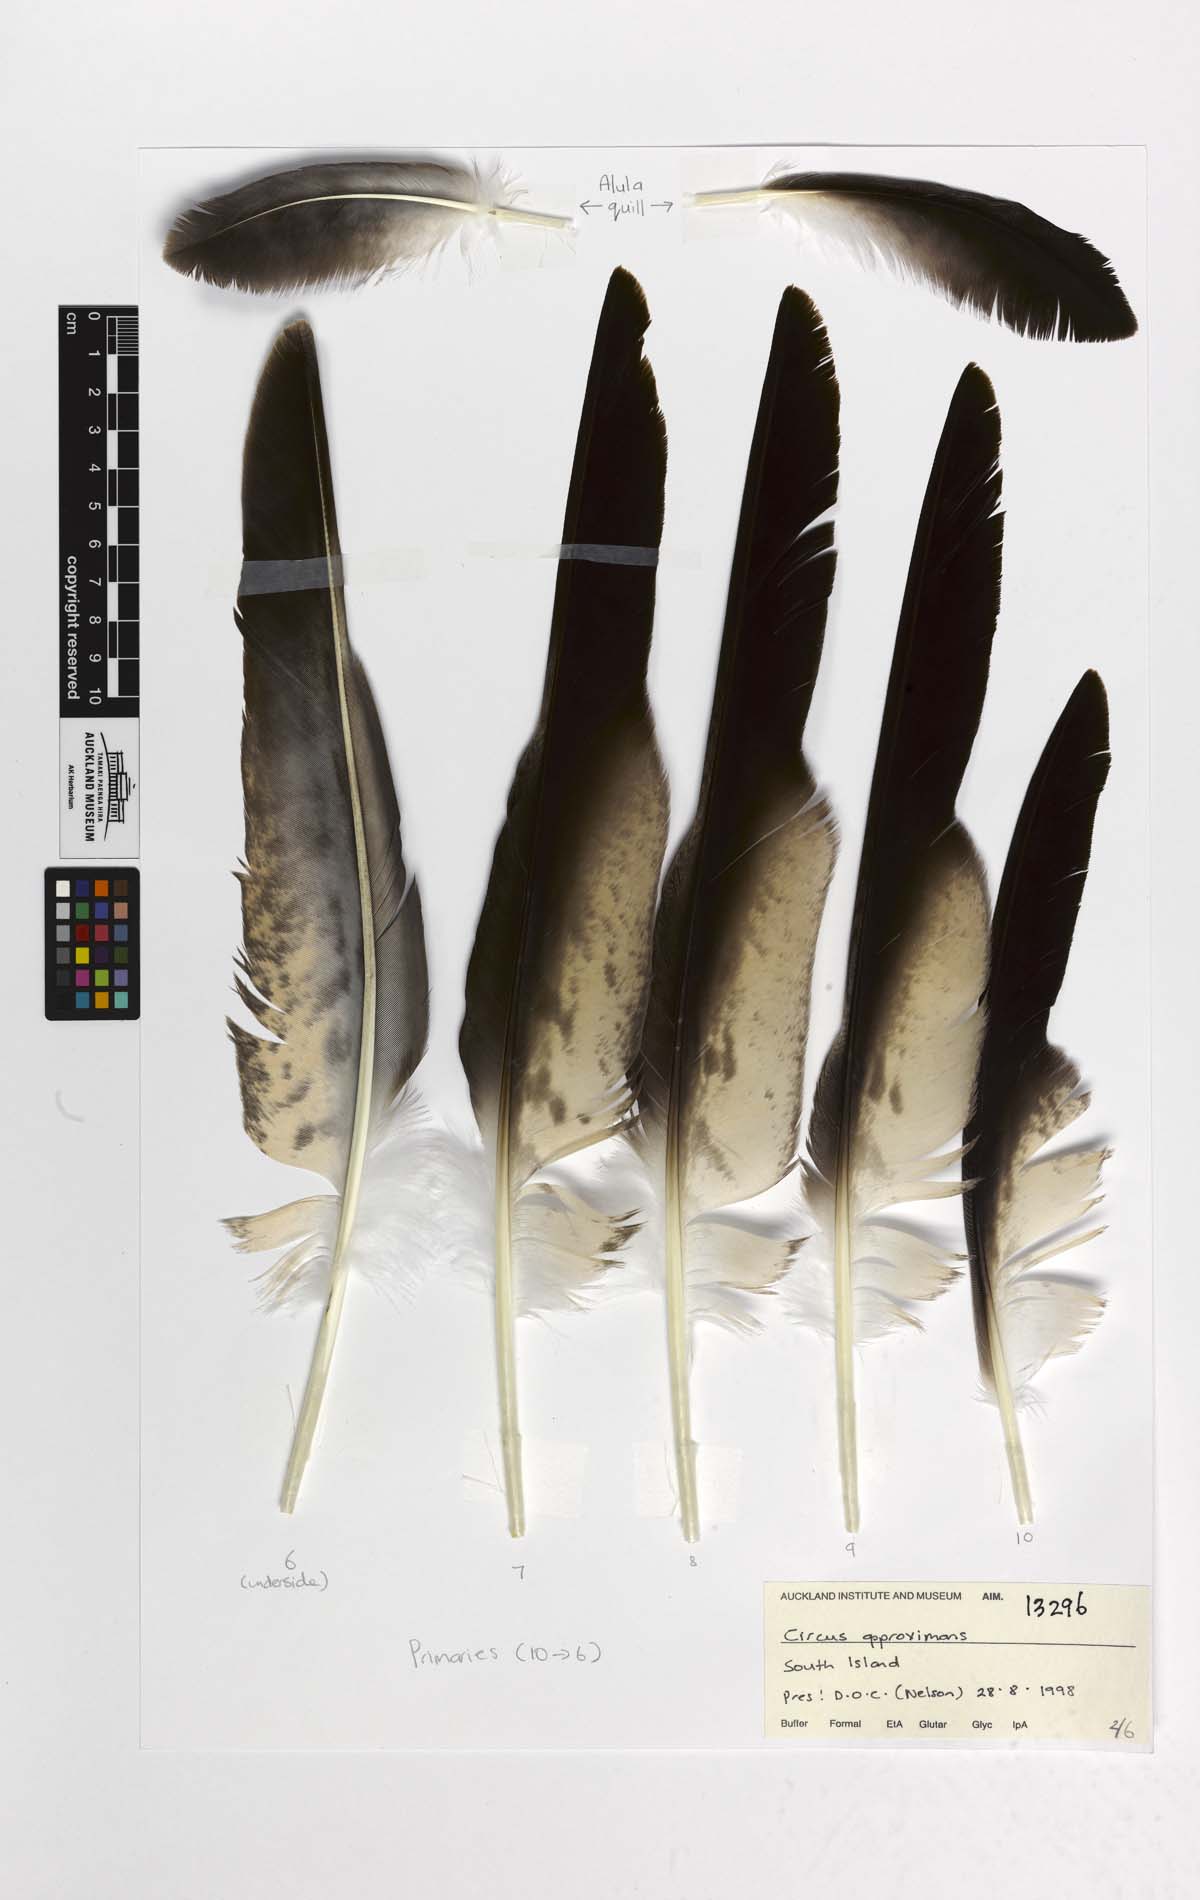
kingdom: Animalia
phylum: Chordata
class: Aves
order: Accipitriformes
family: Accipitridae
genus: Circus
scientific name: Circus approximans
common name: Swamp harrier
